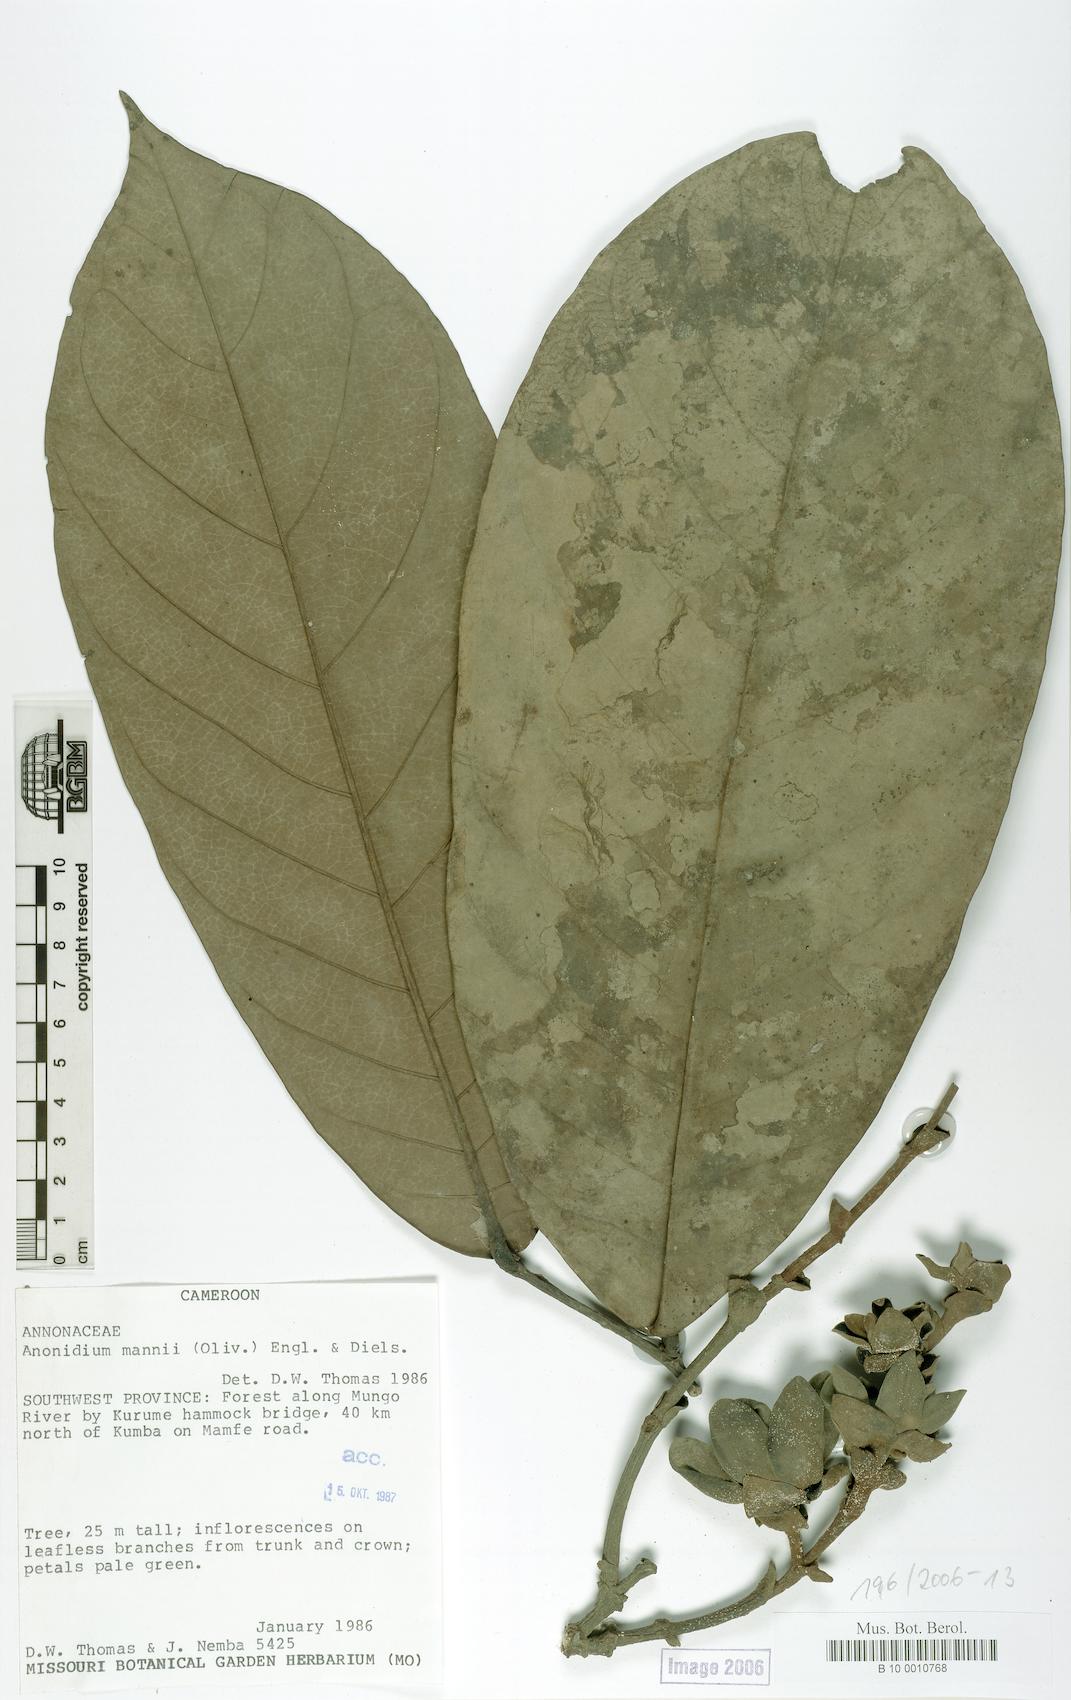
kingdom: Plantae
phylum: Tracheophyta
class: Magnoliopsida
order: Magnoliales
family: Annonaceae
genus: Anonidium
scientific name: Anonidium mannii
